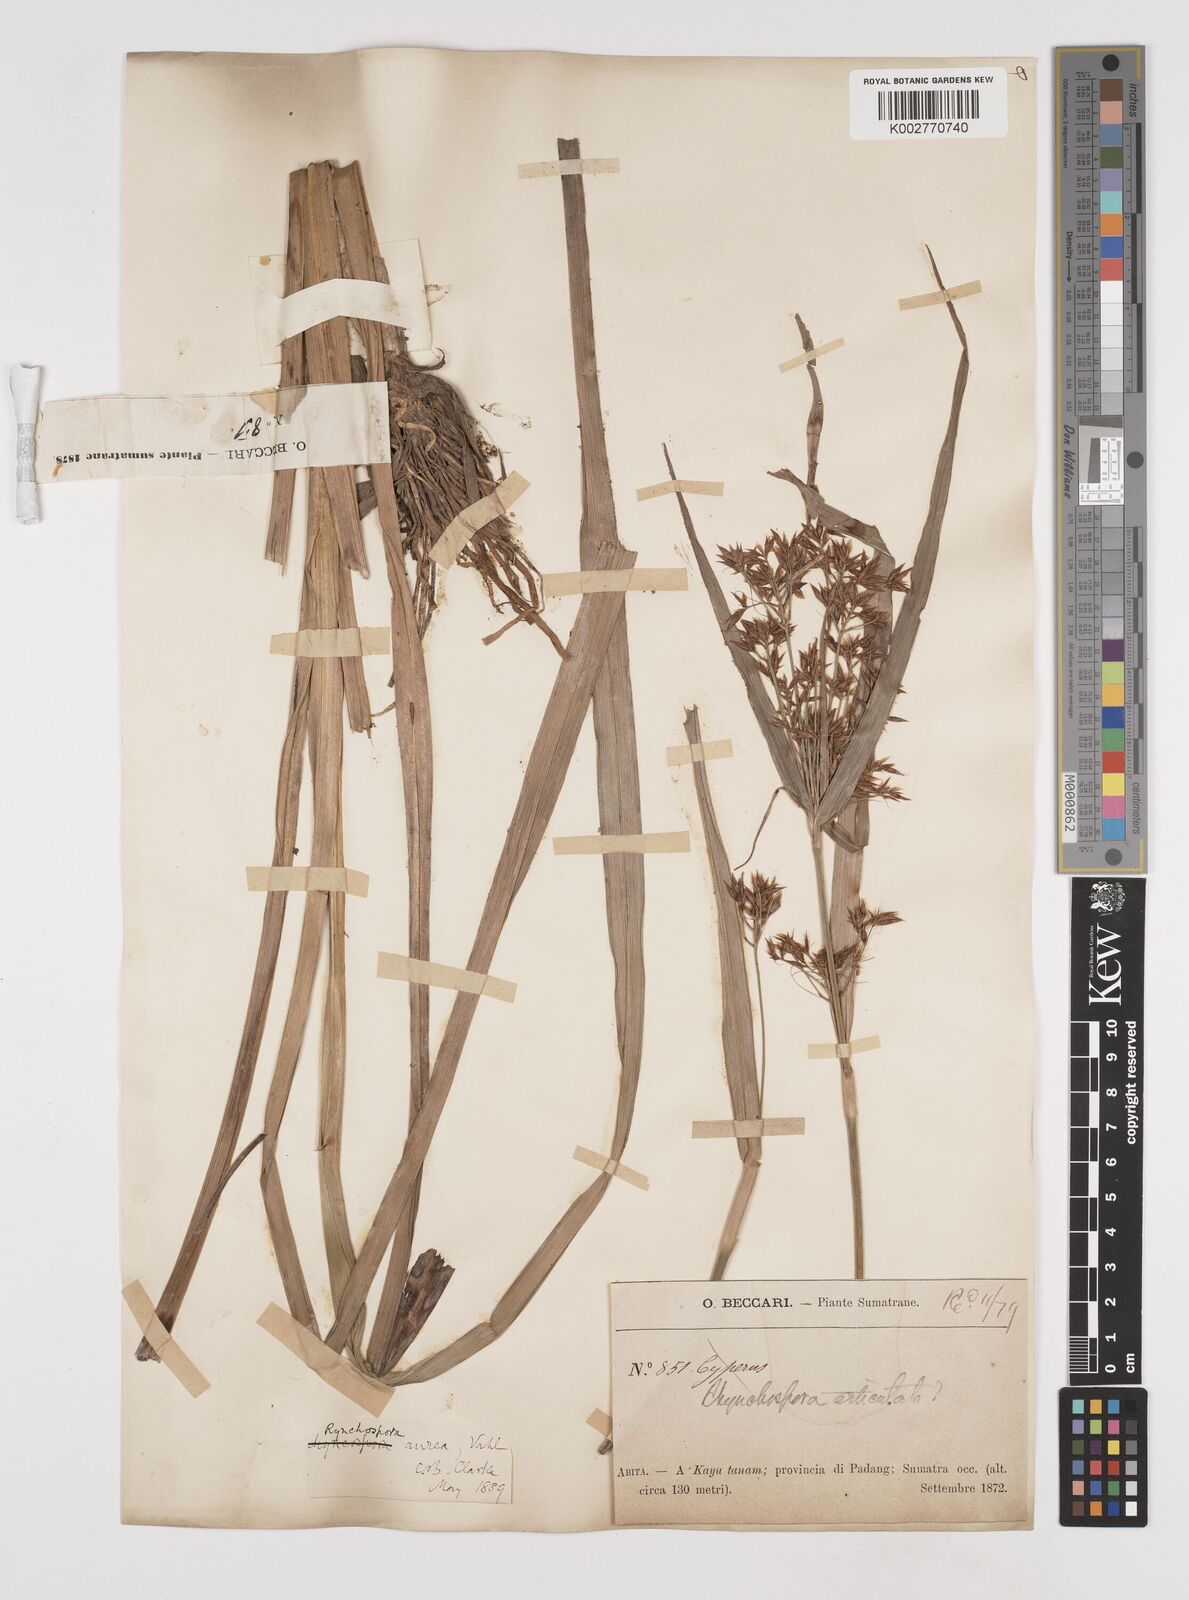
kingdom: Plantae
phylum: Tracheophyta
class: Liliopsida
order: Poales
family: Cyperaceae
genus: Rhynchospora
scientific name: Rhynchospora corymbosa
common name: Golden beak sedge
